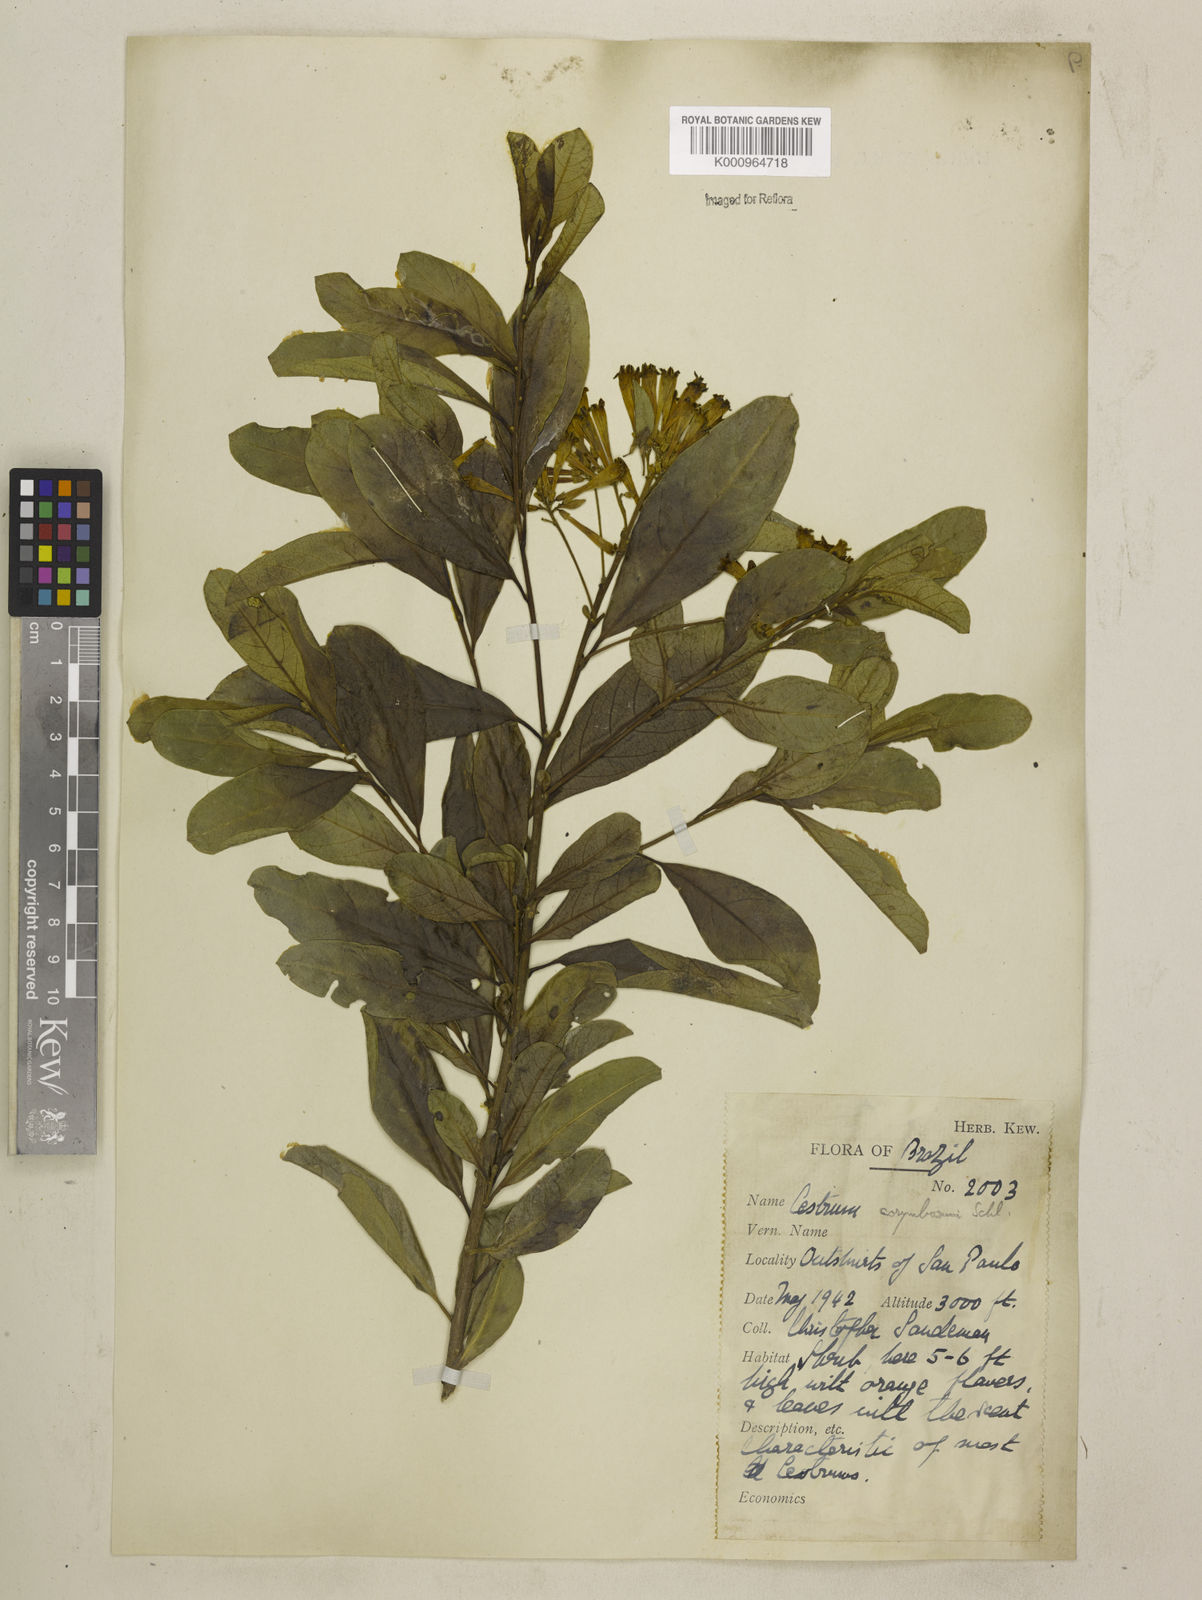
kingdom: Plantae
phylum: Tracheophyta
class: Magnoliopsida
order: Solanales
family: Solanaceae
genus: Cestrum
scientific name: Cestrum corymbosum
